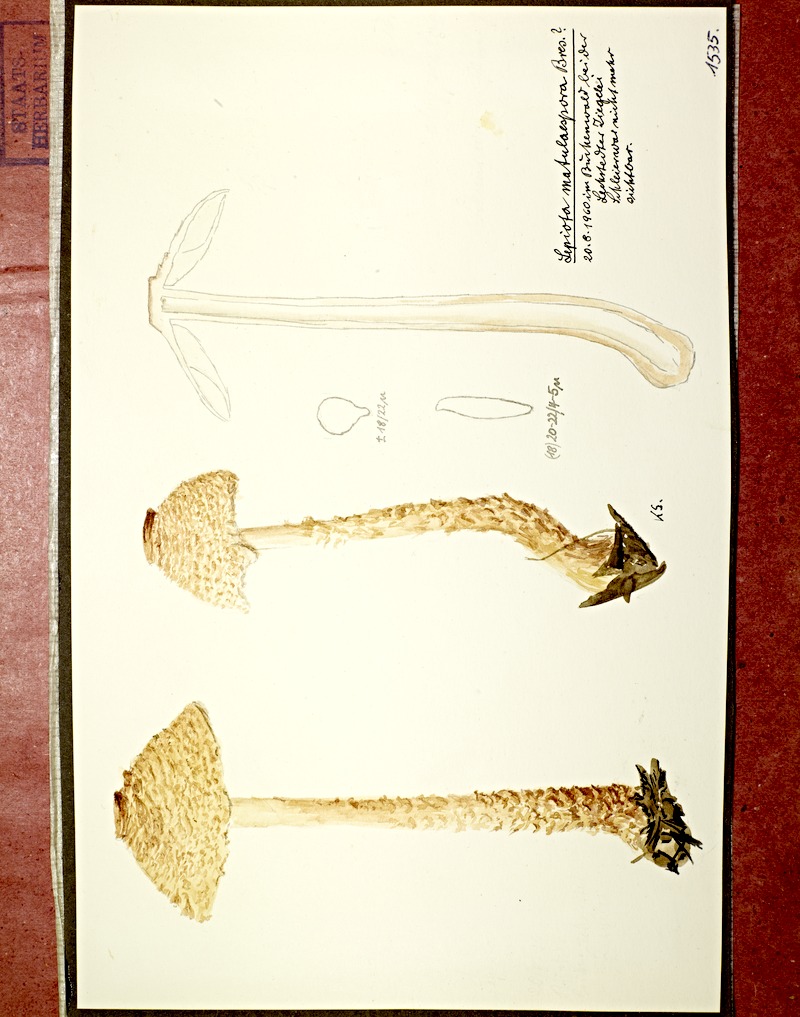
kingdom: Fungi
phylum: Basidiomycota
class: Agaricomycetes
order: Agaricales
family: Agaricaceae
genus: Lepiota
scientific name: Lepiota magnispora
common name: Yellowfoot dapperling
